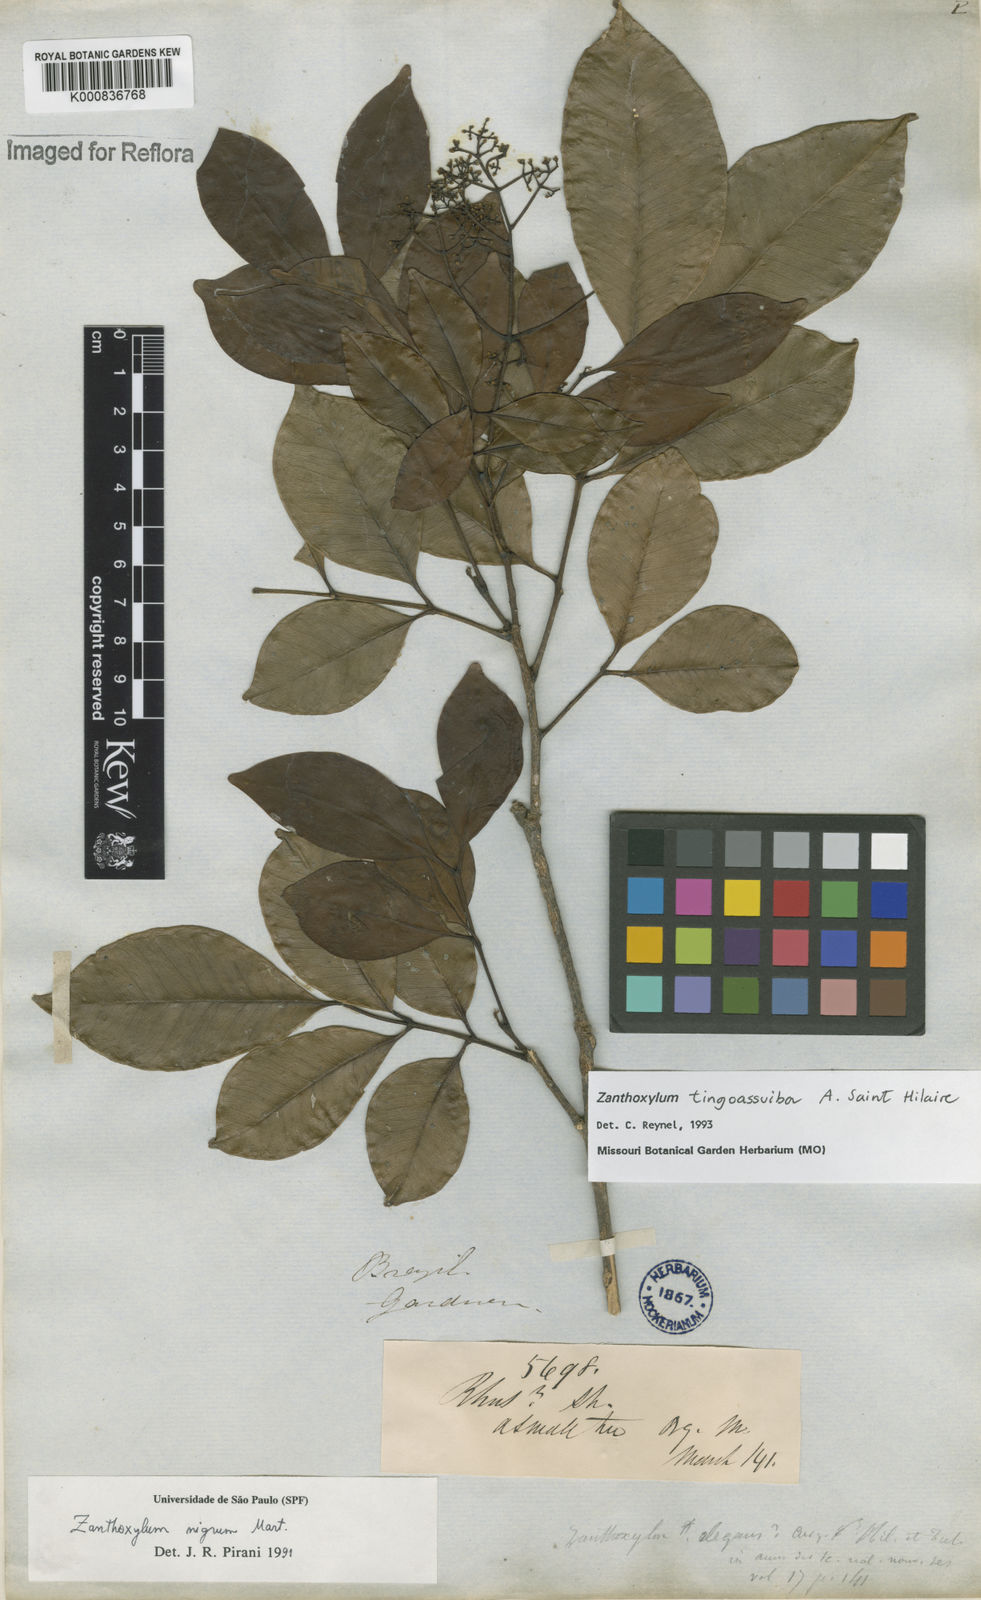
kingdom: Plantae
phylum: Tracheophyta
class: Magnoliopsida
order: Sapindales
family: Rutaceae
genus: Zanthoxylum
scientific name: Zanthoxylum tingoassuiba
